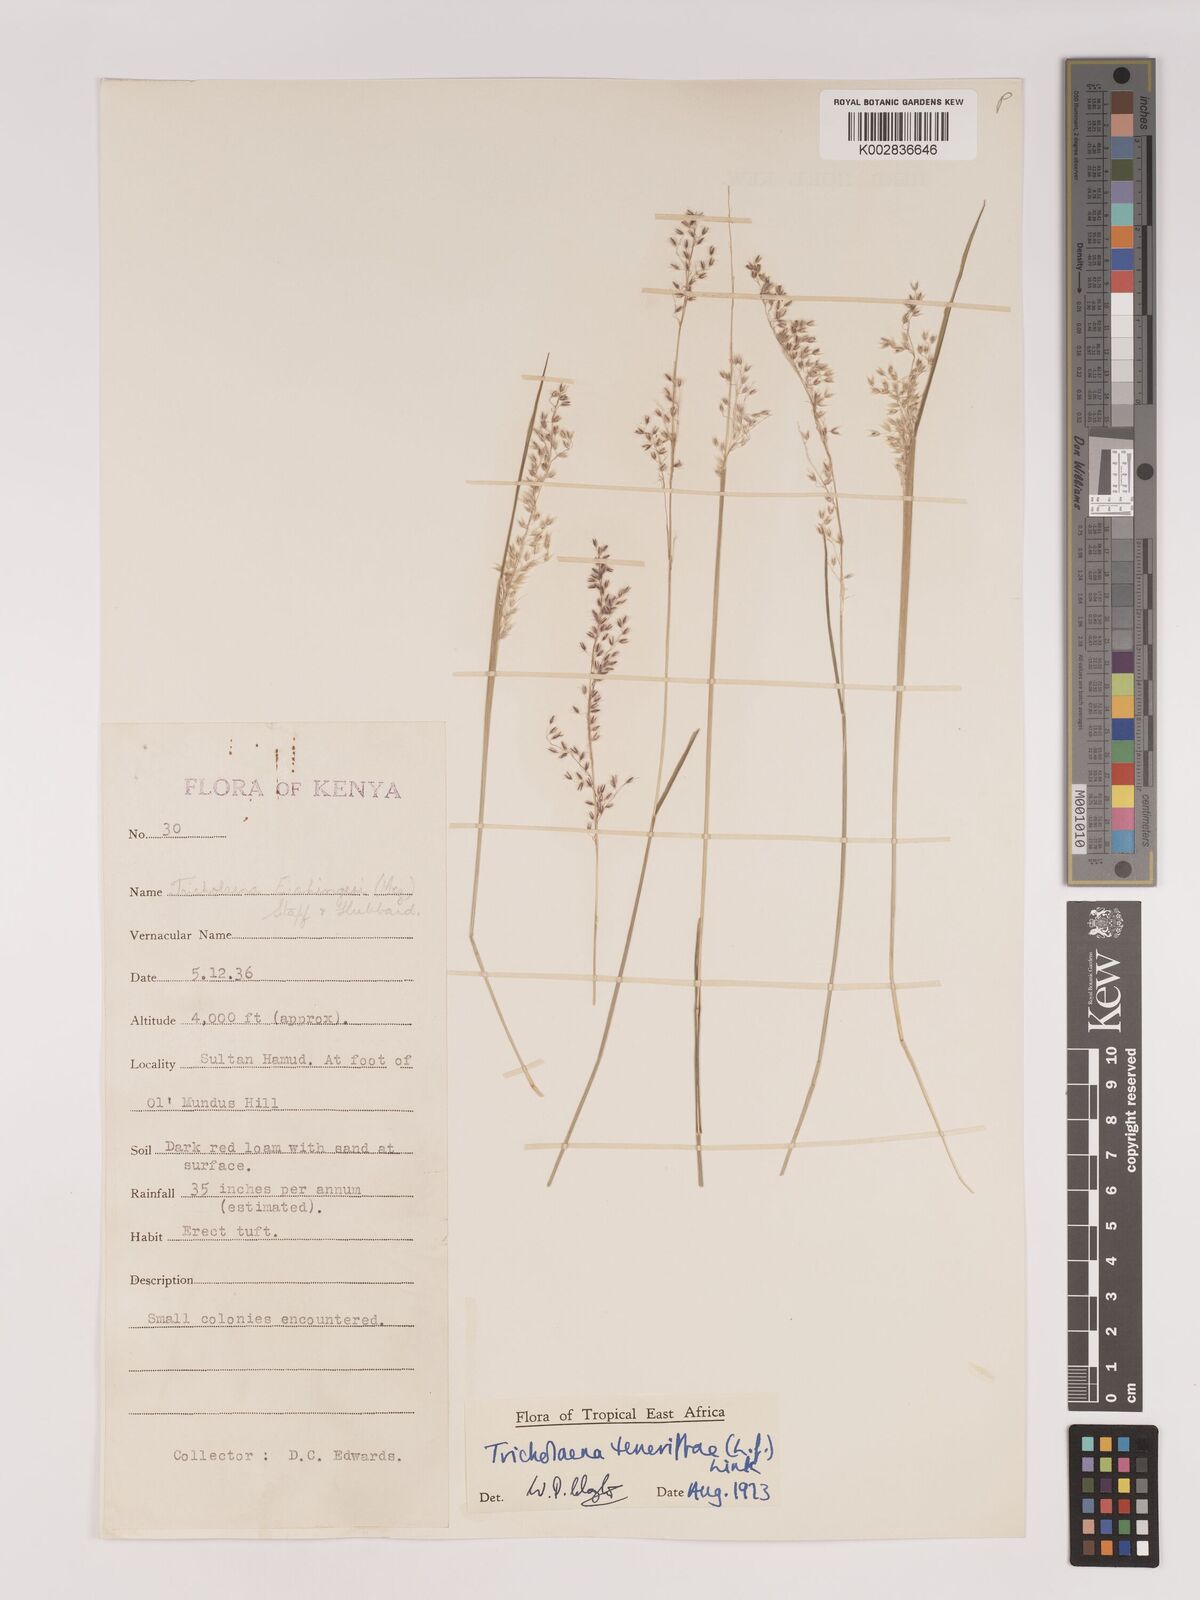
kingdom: Plantae
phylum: Tracheophyta
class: Liliopsida
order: Poales
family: Poaceae
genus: Tricholaena
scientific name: Tricholaena teneriffae
